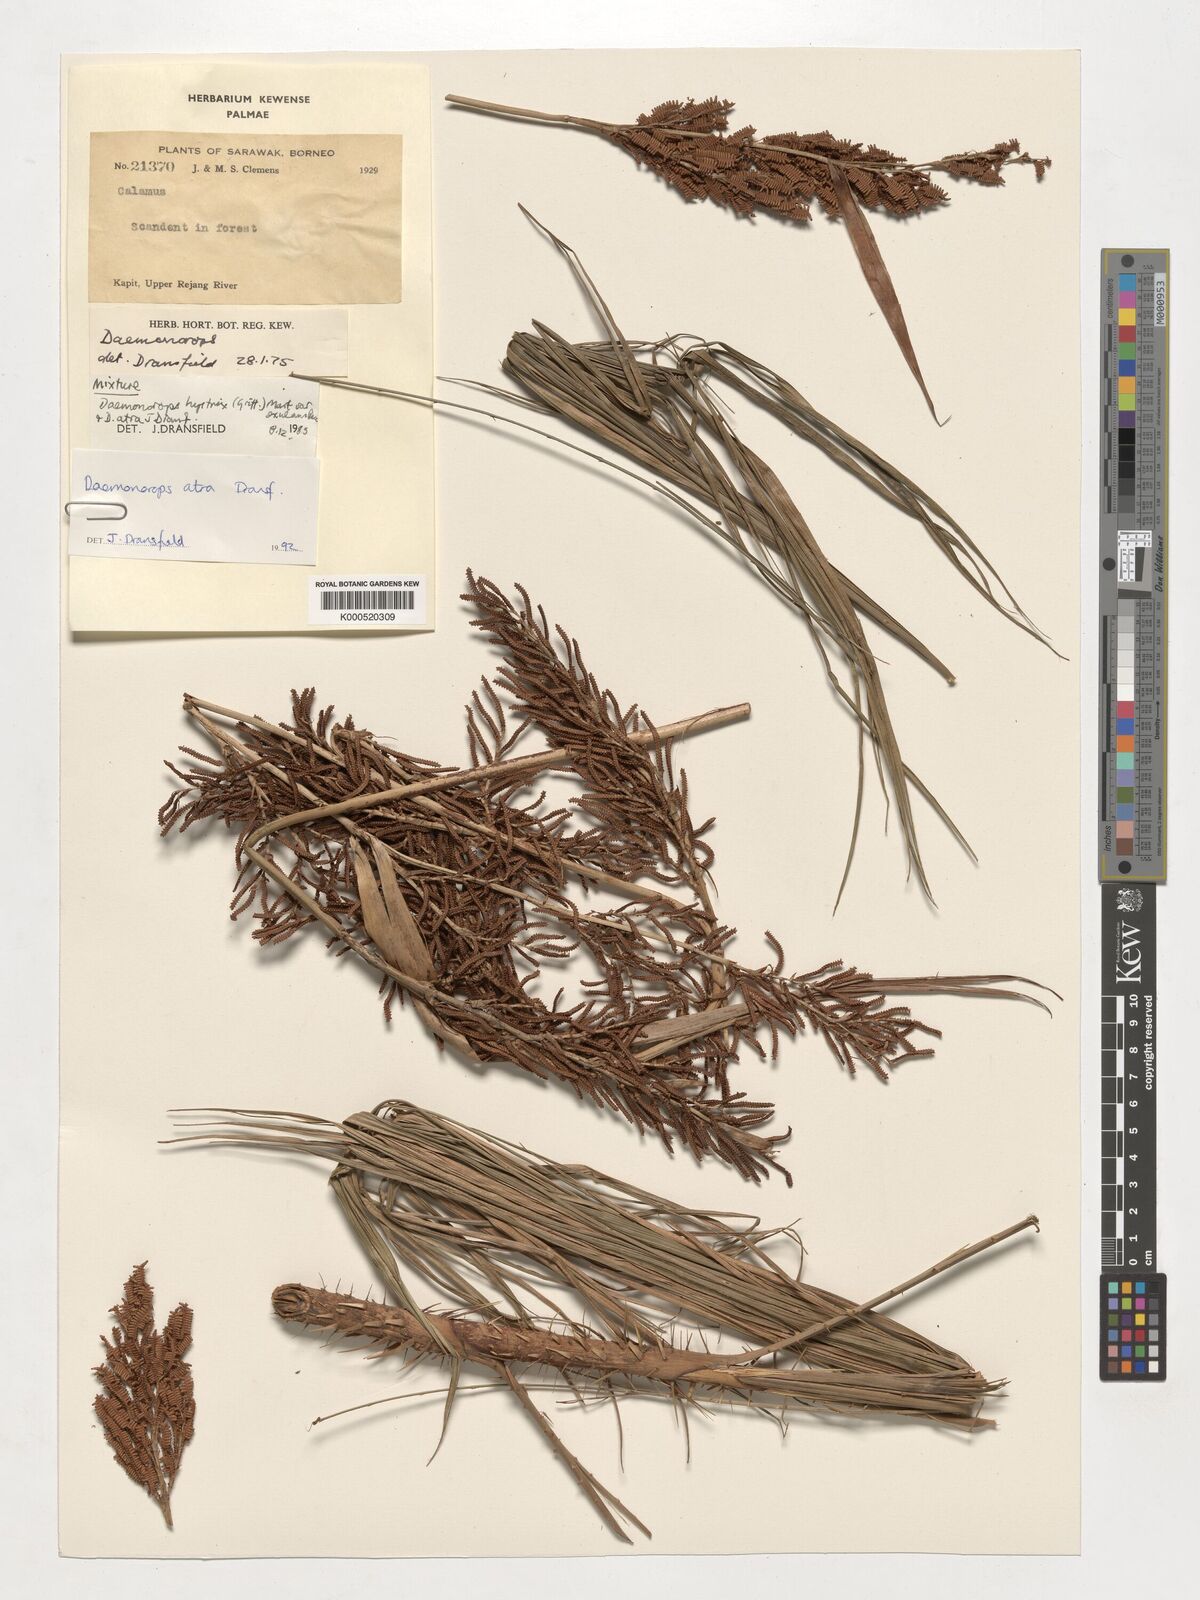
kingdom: Plantae
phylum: Tracheophyta
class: Liliopsida
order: Arecales
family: Arecaceae
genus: Calamus
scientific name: Calamus ater
